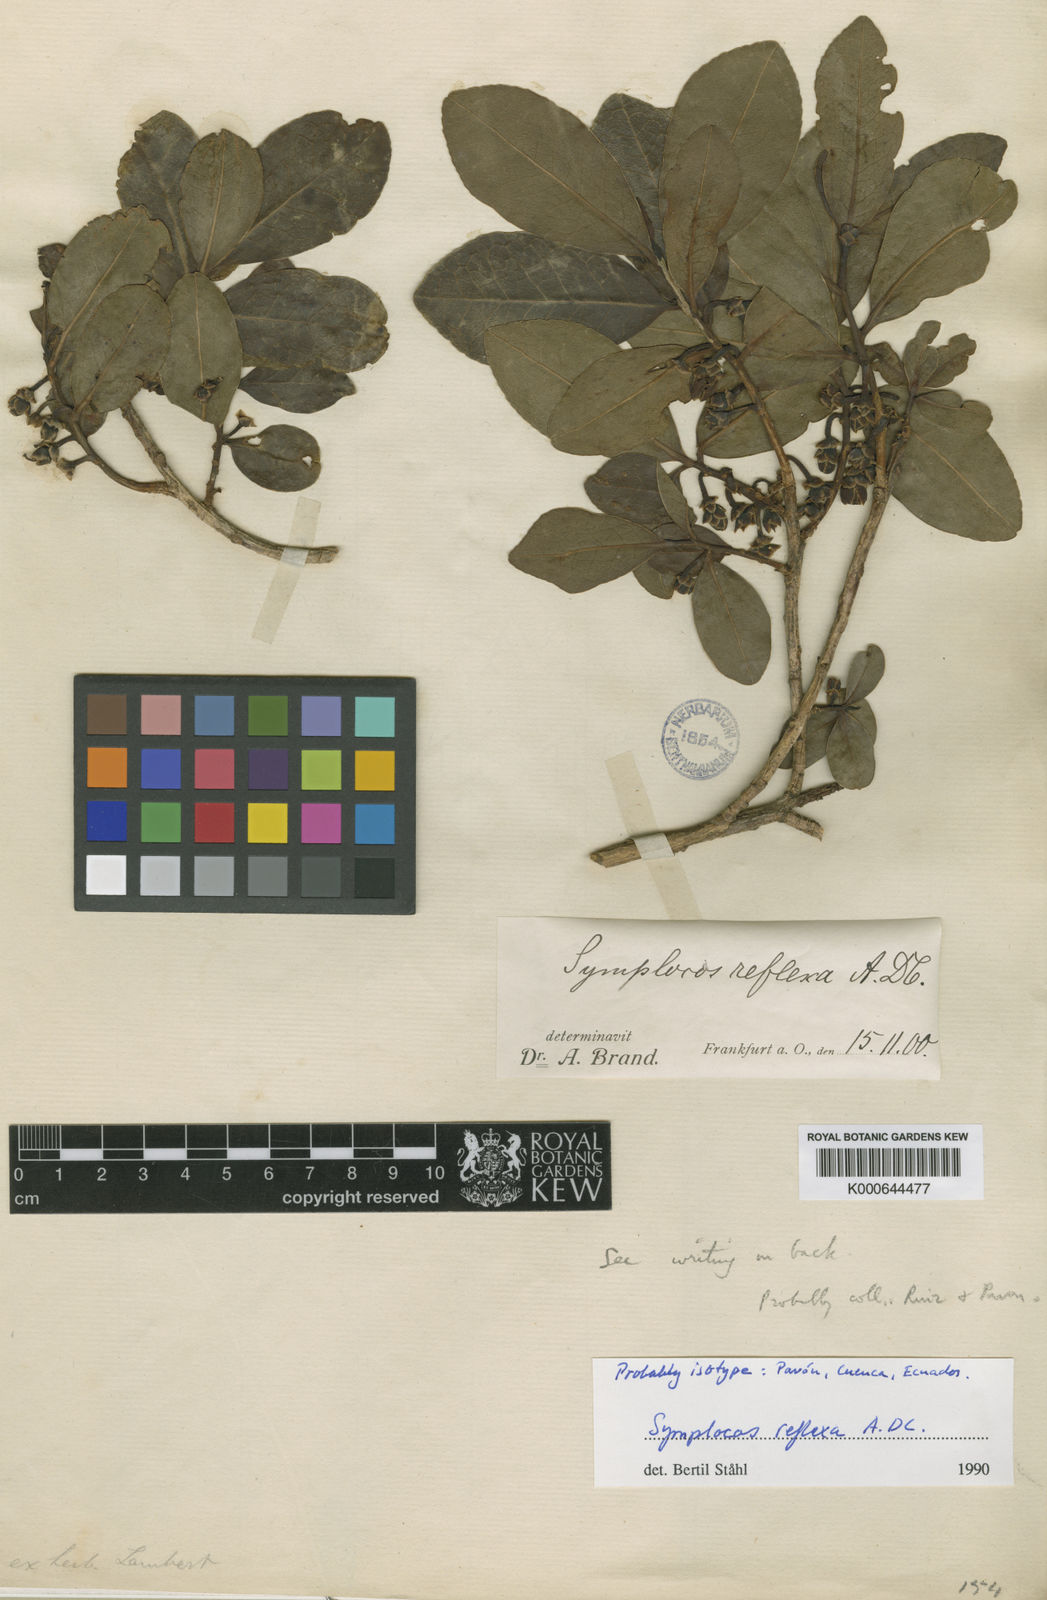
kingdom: Plantae
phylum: Tracheophyta
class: Magnoliopsida
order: Ericales
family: Symplocaceae
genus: Symplocos
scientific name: Symplocos reflexa
